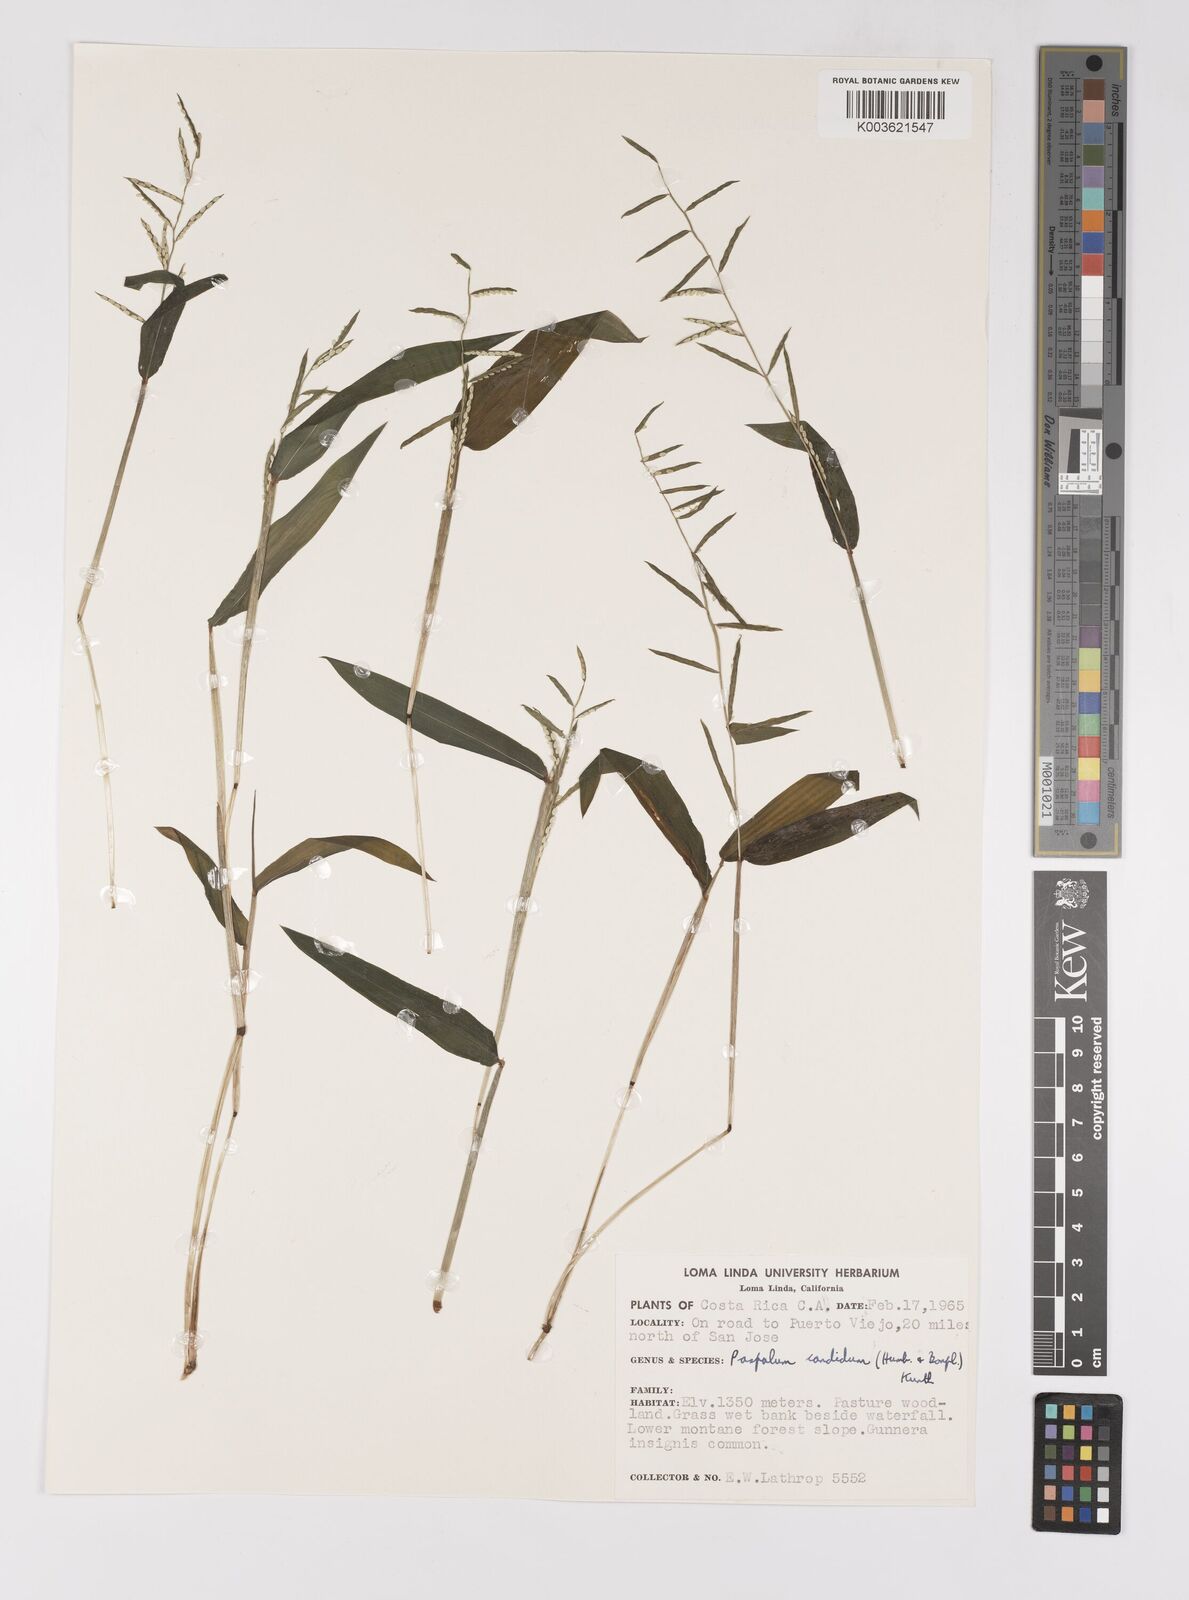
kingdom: Plantae
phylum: Tracheophyta
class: Liliopsida
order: Poales
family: Poaceae
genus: Paspalum
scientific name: Paspalum candidum
